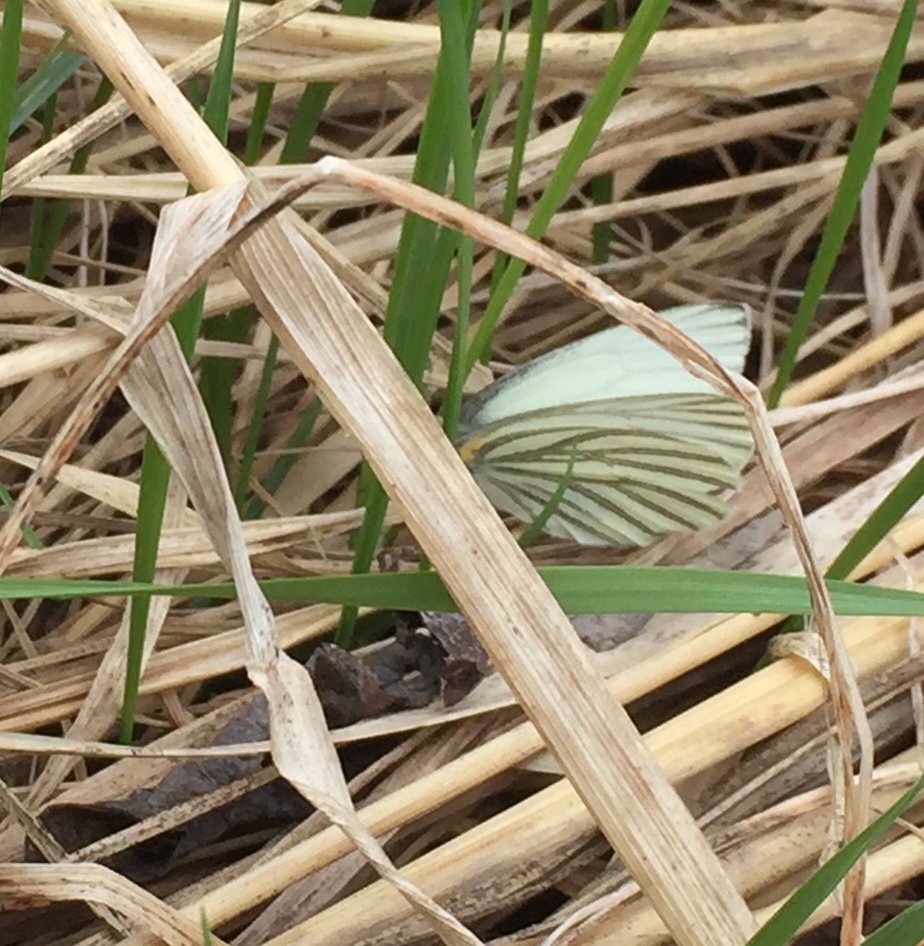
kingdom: Animalia
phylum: Arthropoda
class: Insecta
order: Lepidoptera
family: Pieridae
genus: Pieris
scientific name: Pieris oleracea
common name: Mustard White
